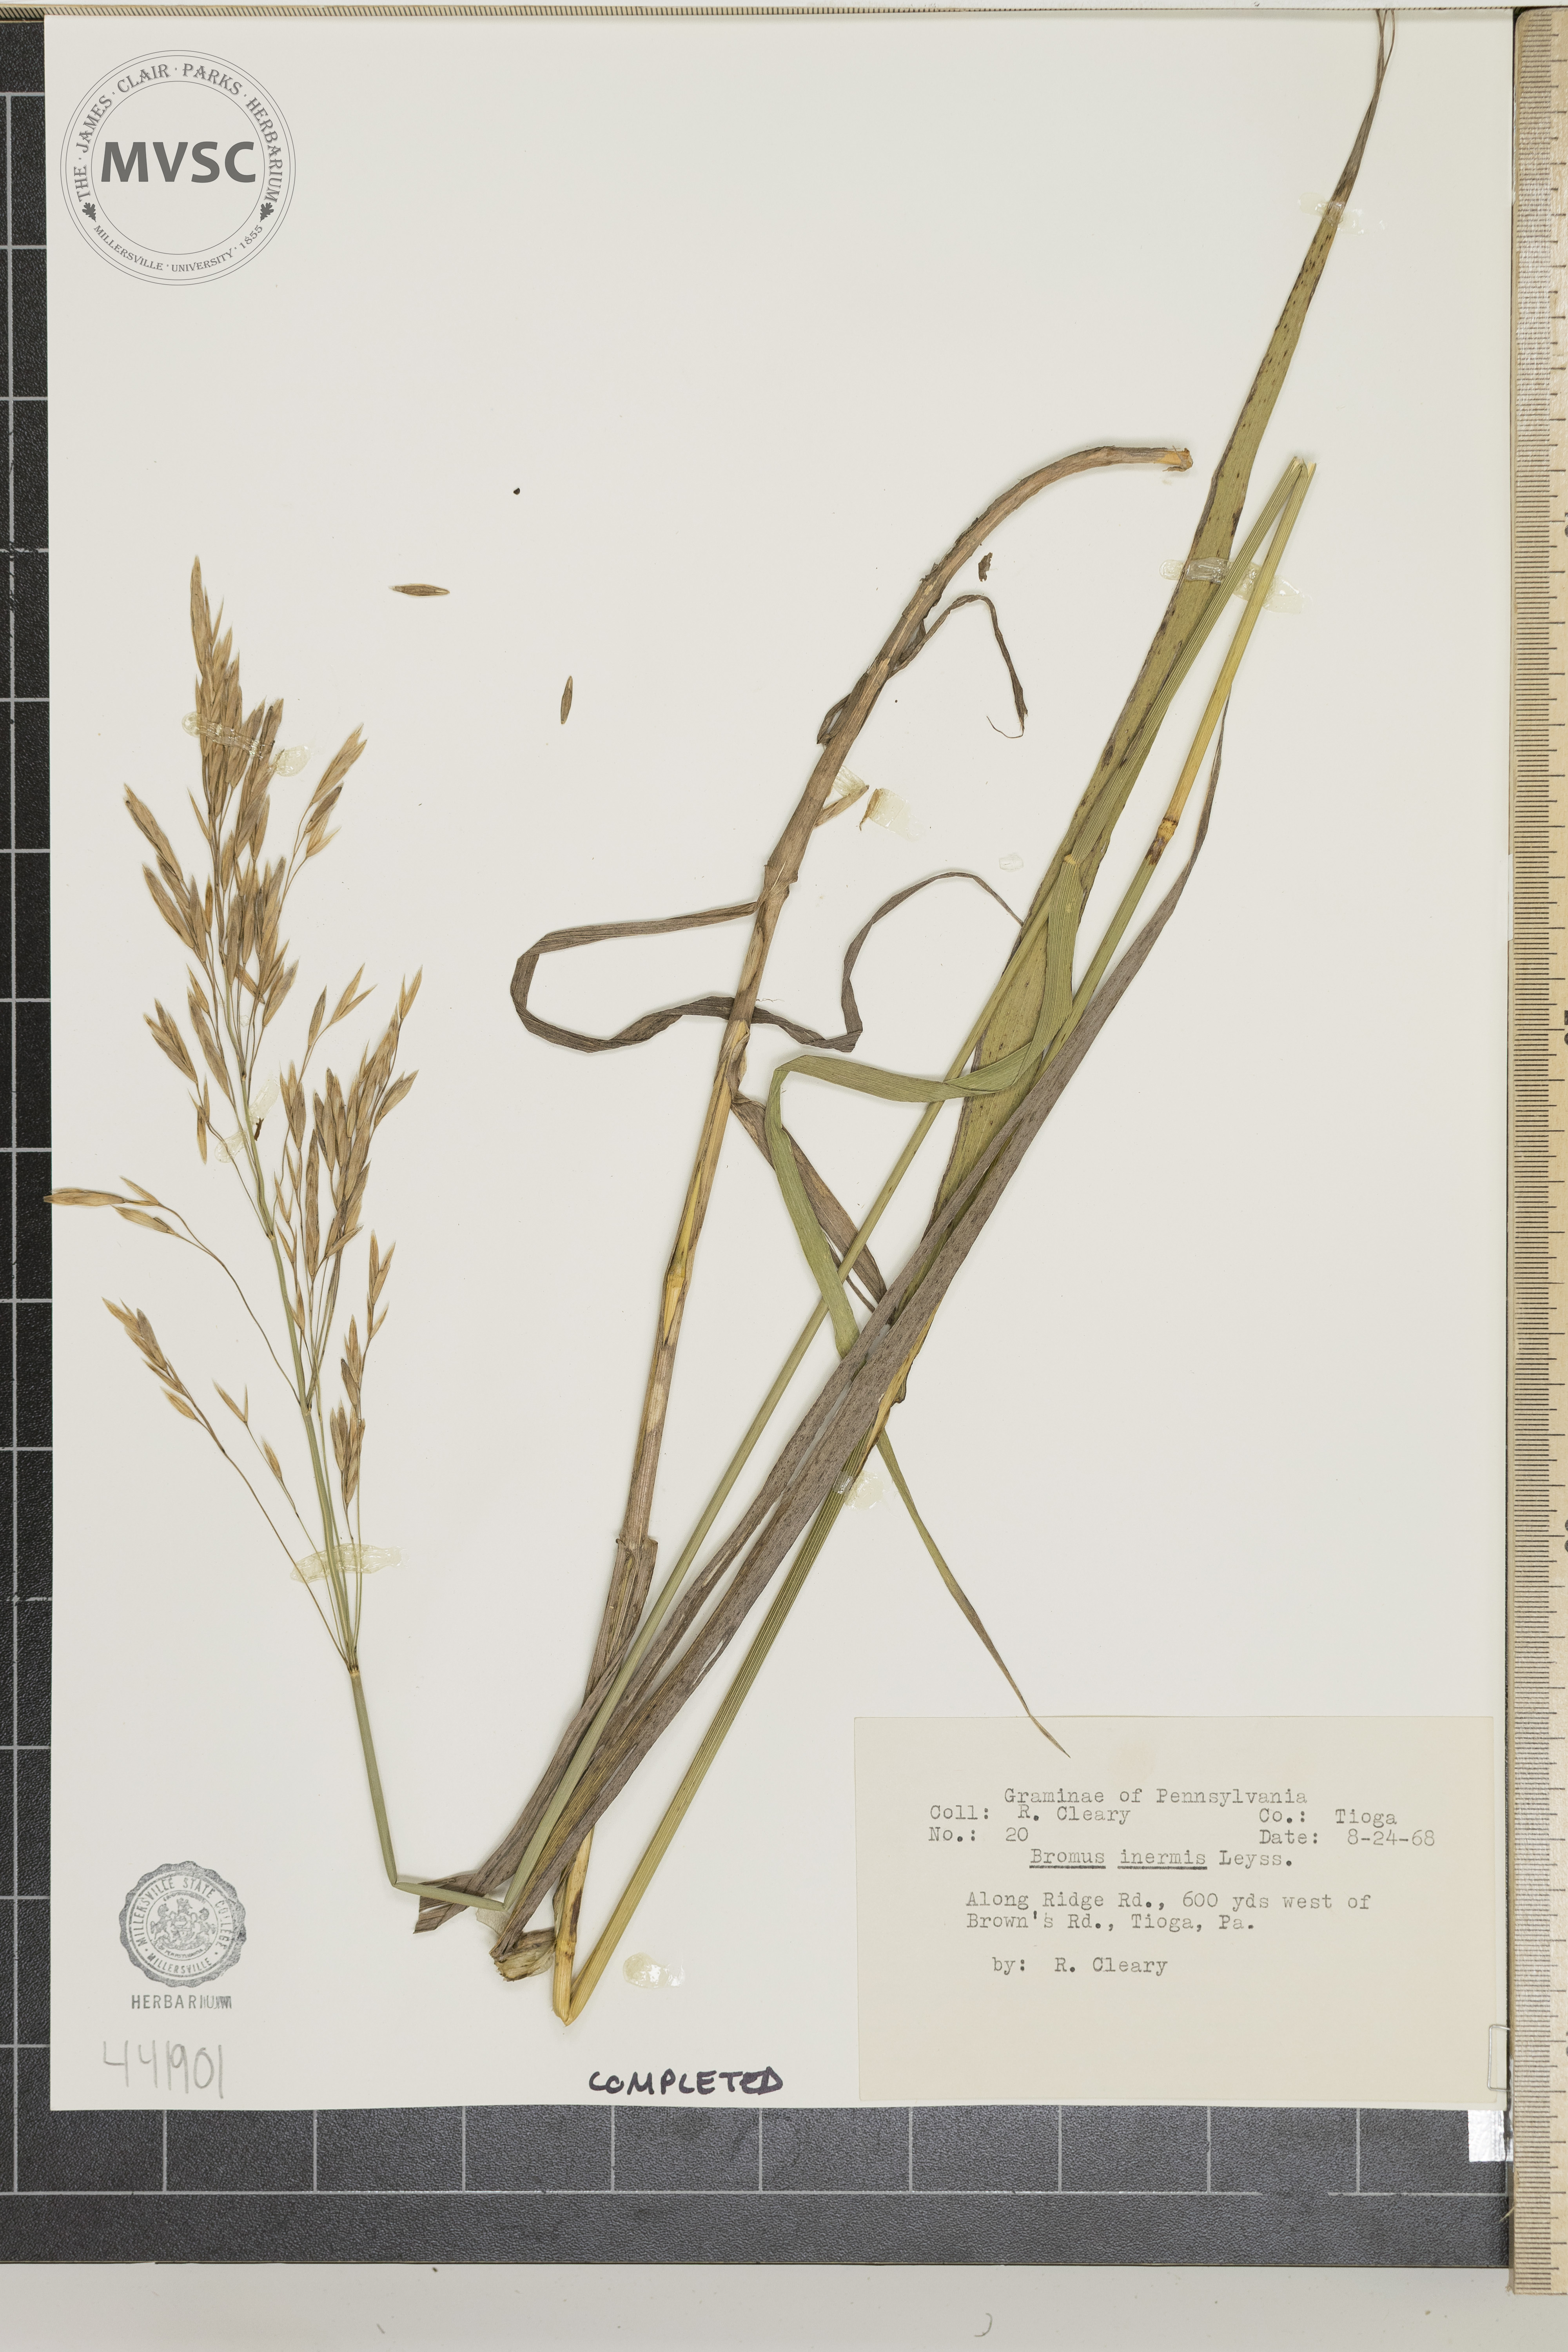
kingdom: Plantae
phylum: Tracheophyta
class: Liliopsida
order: Poales
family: Poaceae
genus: Bromus
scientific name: Bromus inermis
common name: Smooth brome
